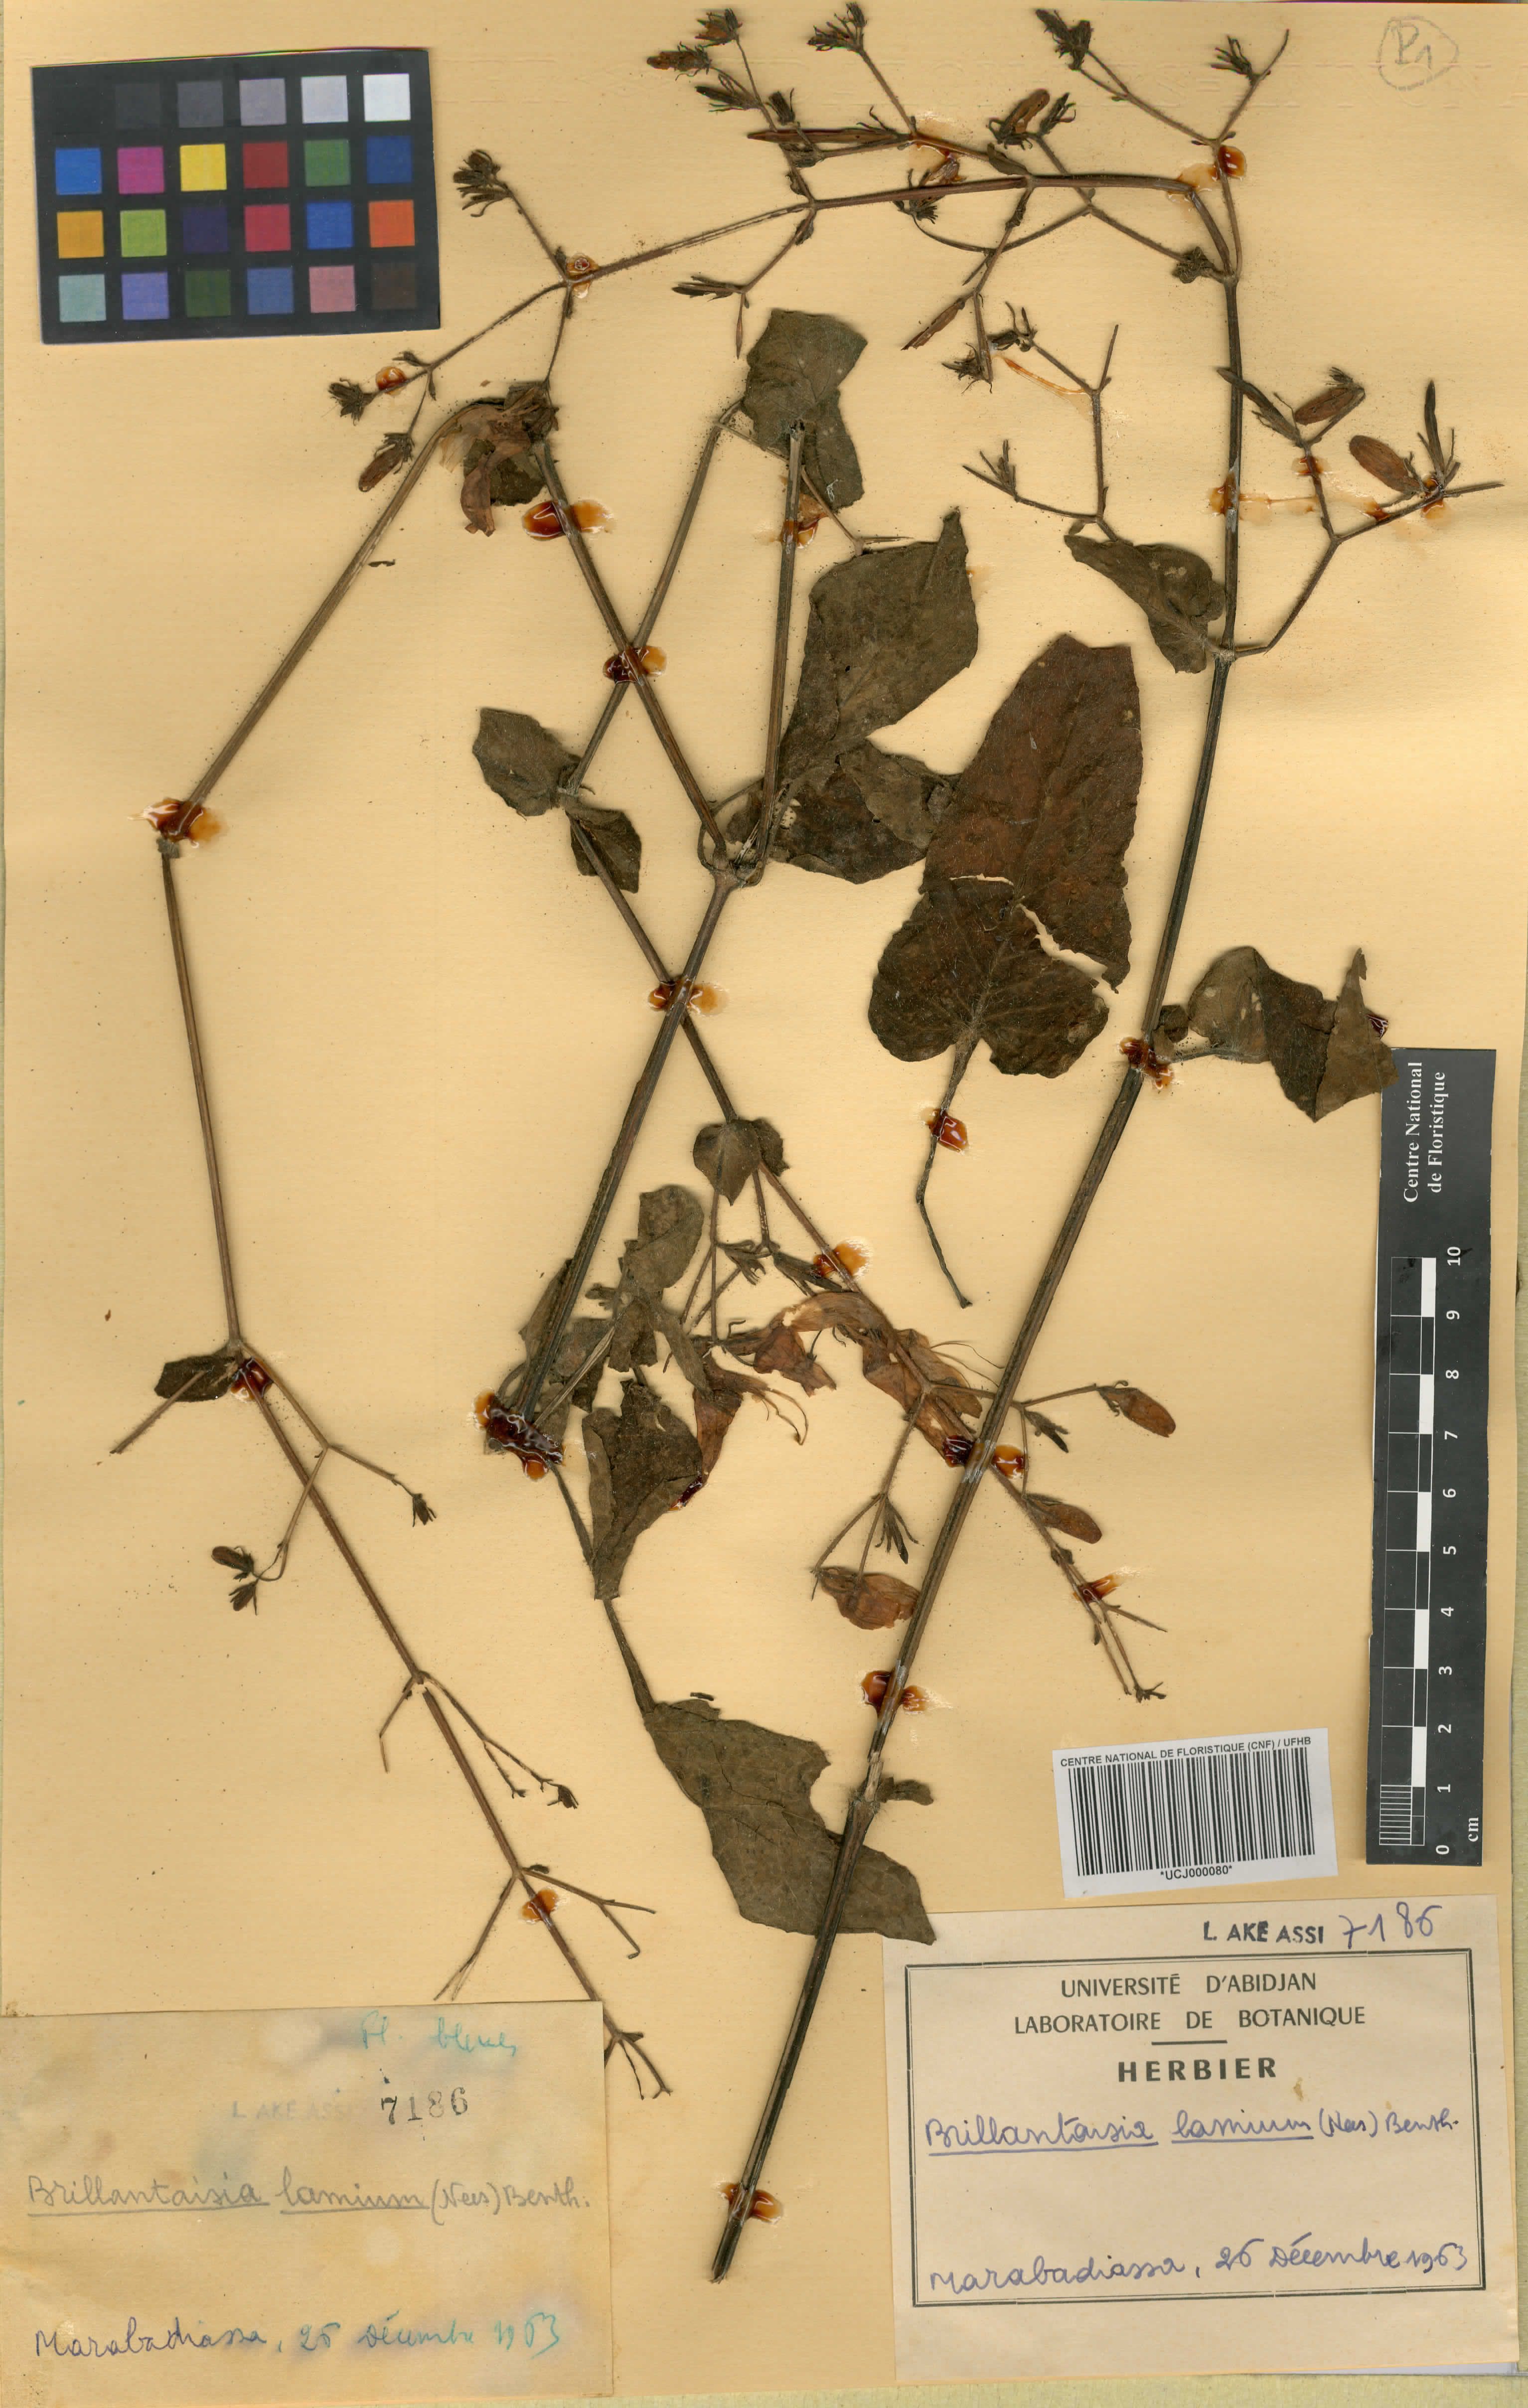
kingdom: Plantae
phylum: Tracheophyta
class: Magnoliopsida
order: Lamiales
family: Acanthaceae
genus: Brillantaisia
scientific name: Brillantaisia lamium
